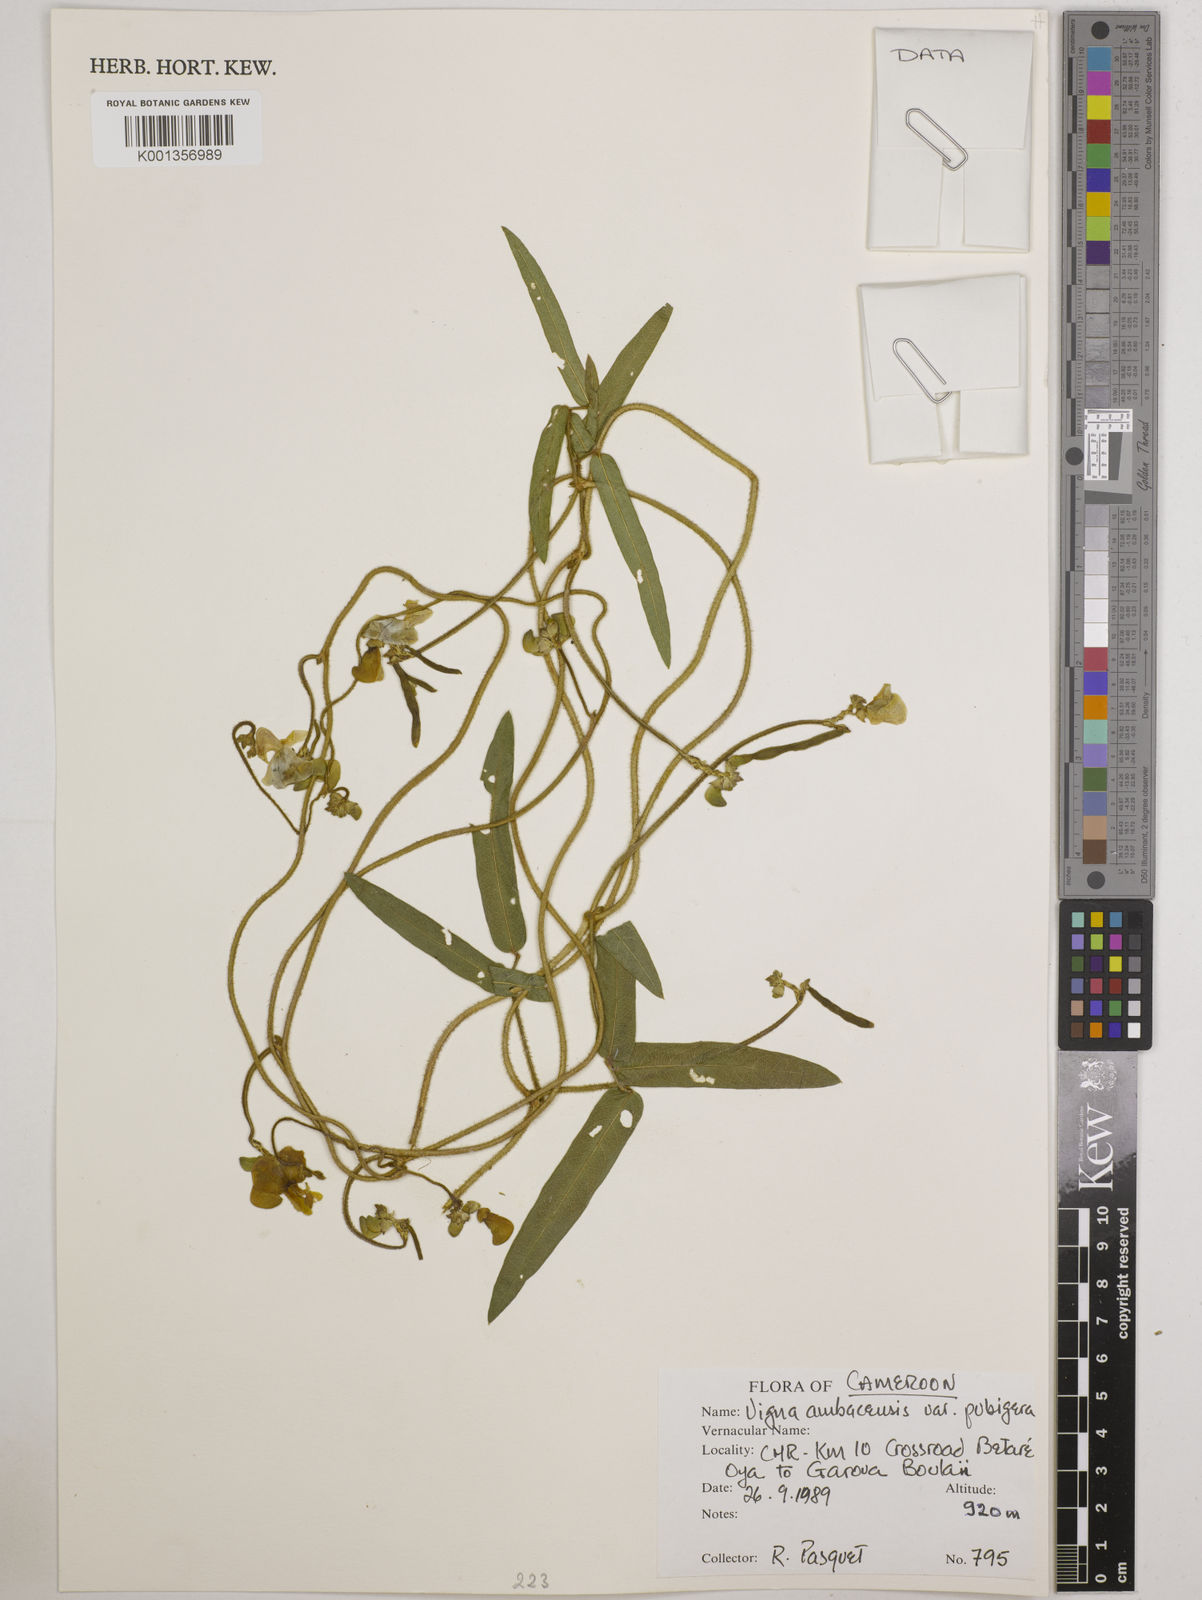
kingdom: Plantae
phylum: Tracheophyta
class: Magnoliopsida
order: Fabales
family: Fabaceae
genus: Vigna
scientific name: Vigna pubigera
